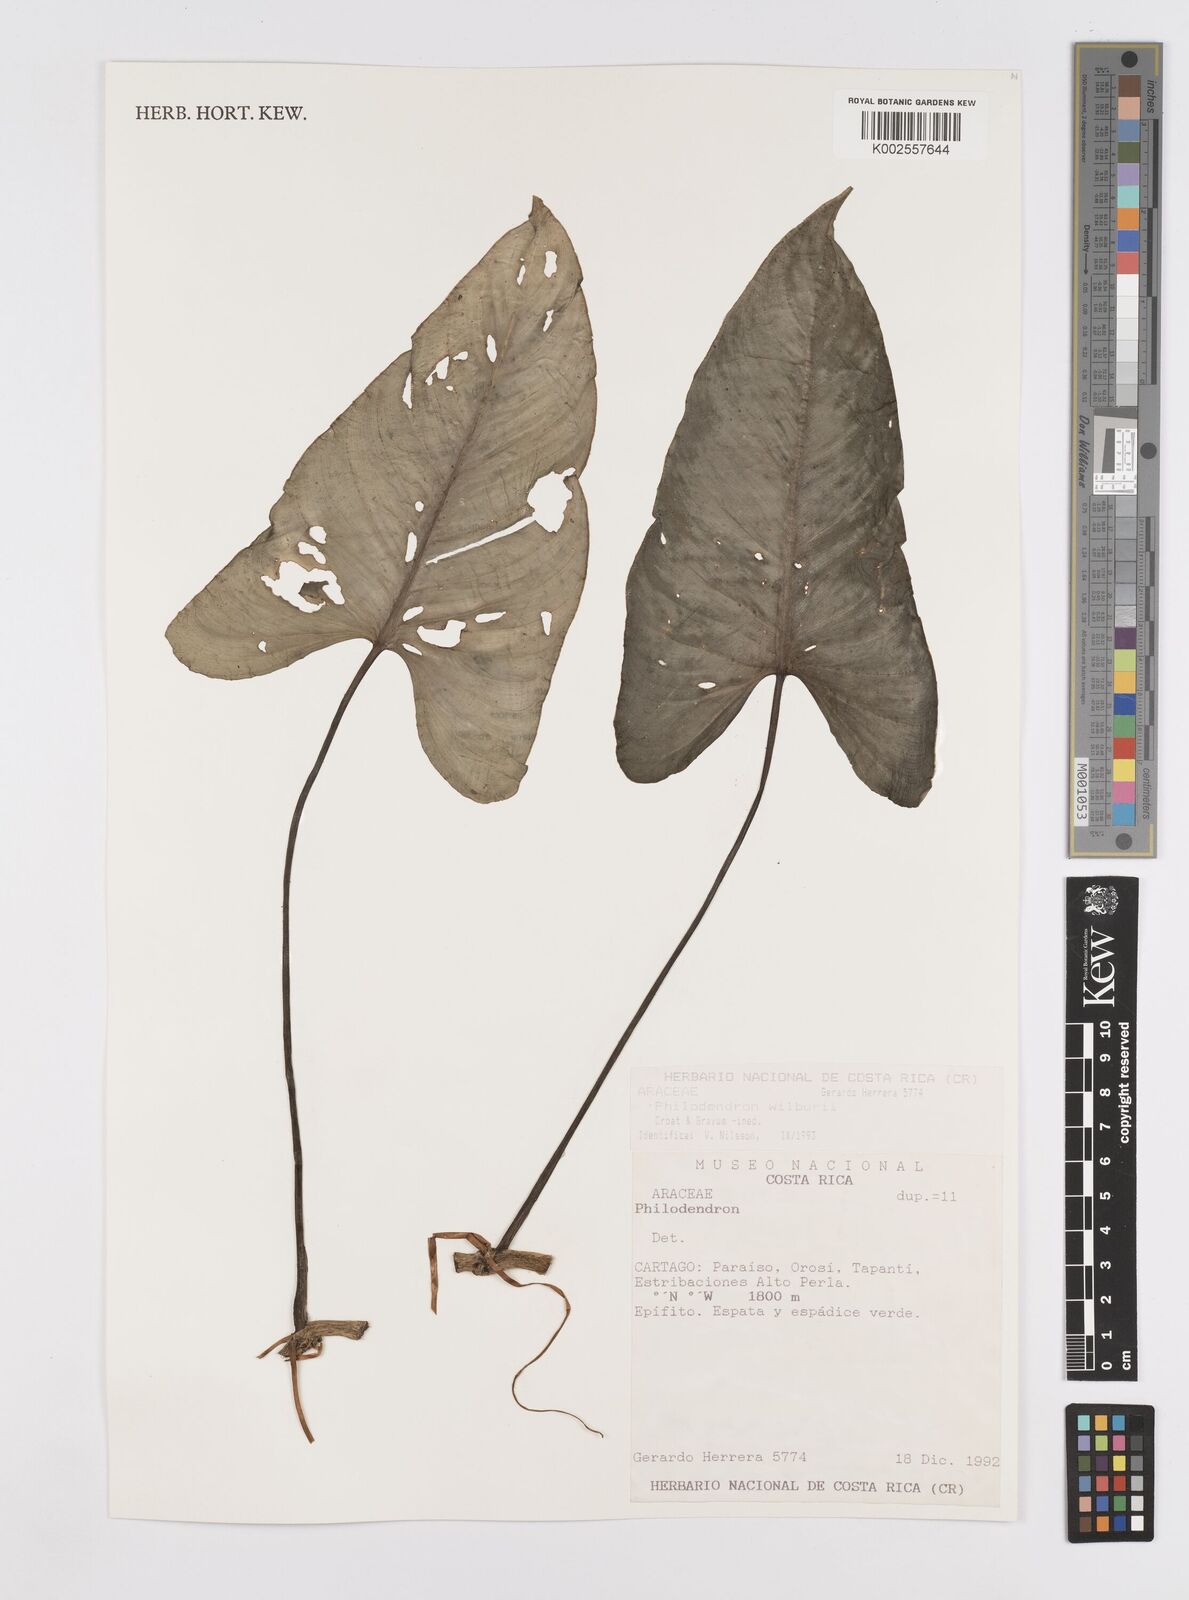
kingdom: Plantae
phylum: Tracheophyta
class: Liliopsida
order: Alismatales
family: Araceae
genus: Philodendron
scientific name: Philodendron wilburii
